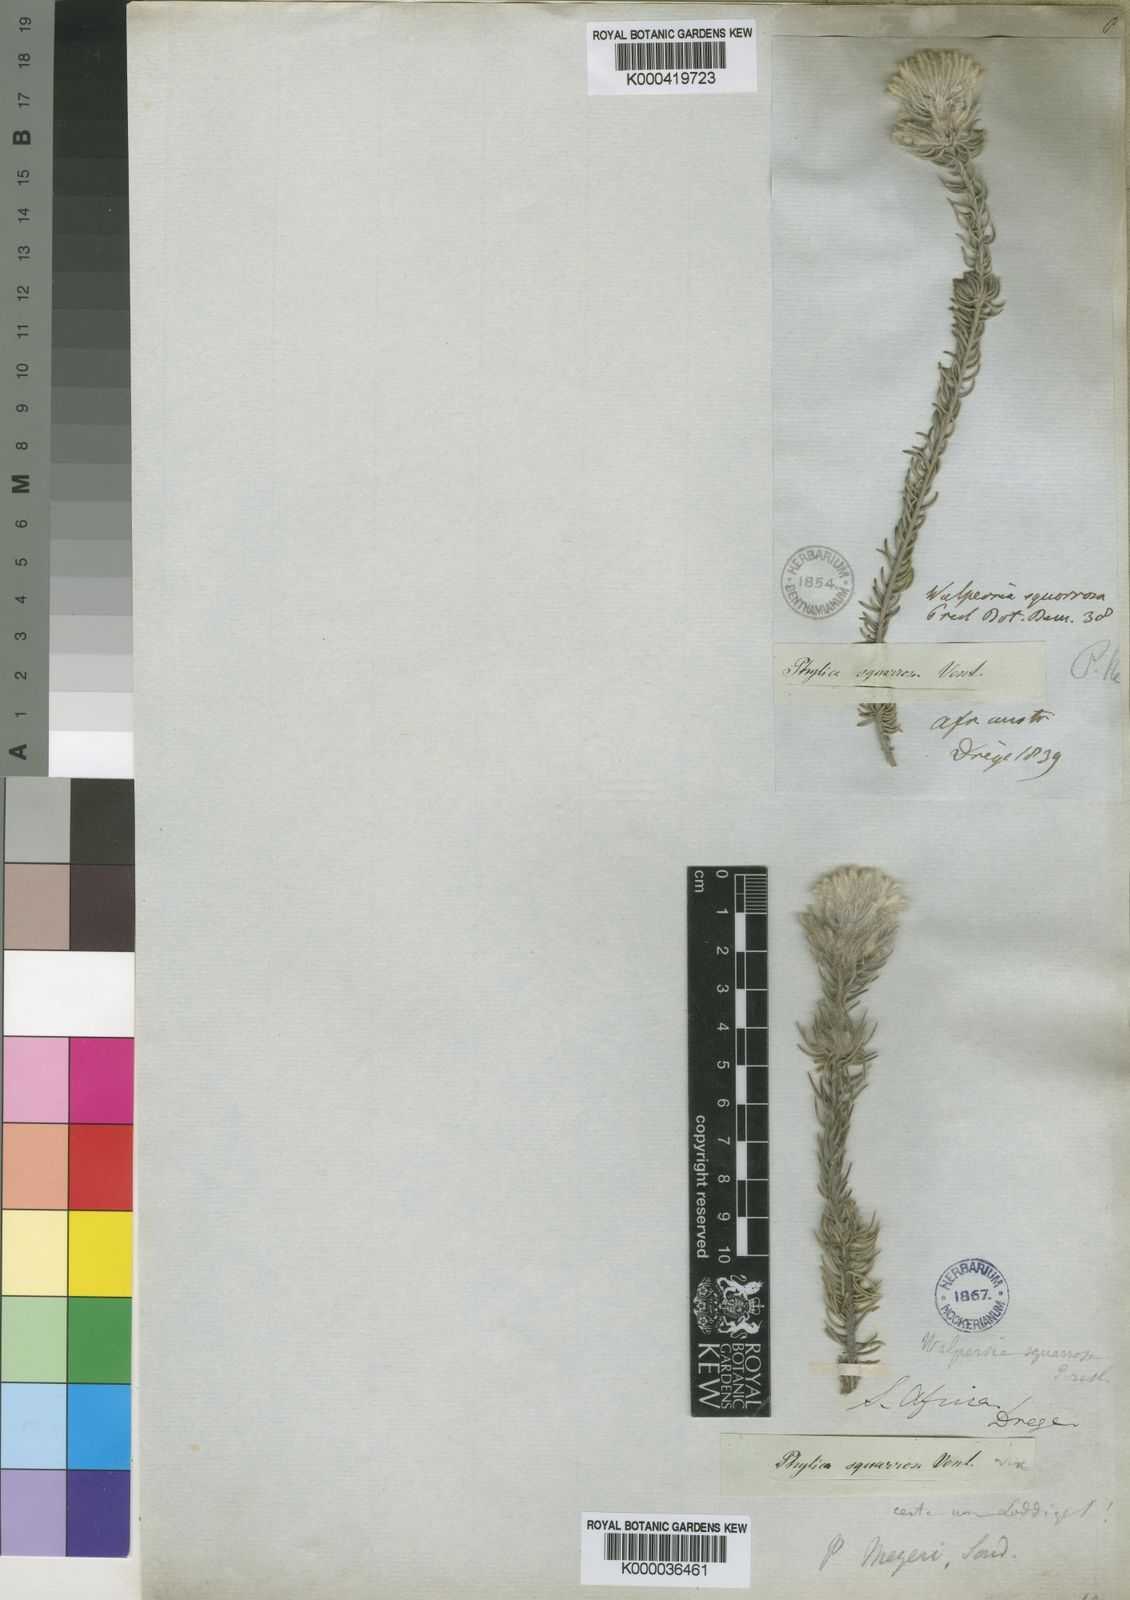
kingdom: Plantae
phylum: Tracheophyta
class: Magnoliopsida
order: Rosales
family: Rhamnaceae
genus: Phylica
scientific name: Phylica meyeri
